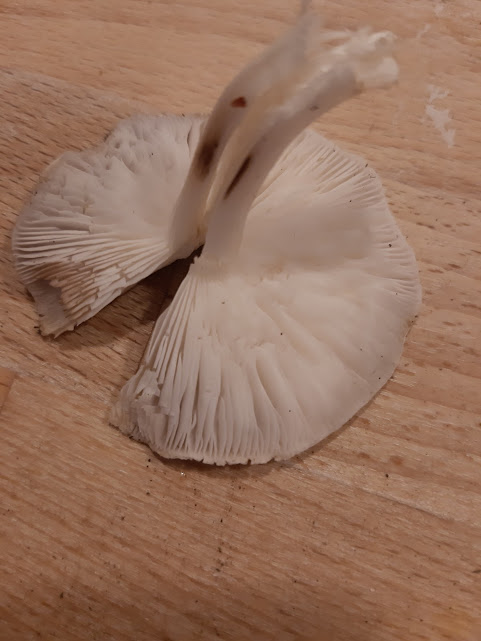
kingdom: Fungi
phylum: Basidiomycota
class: Agaricomycetes
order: Agaricales
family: Tricholomataceae
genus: Tricholoma
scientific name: Tricholoma
